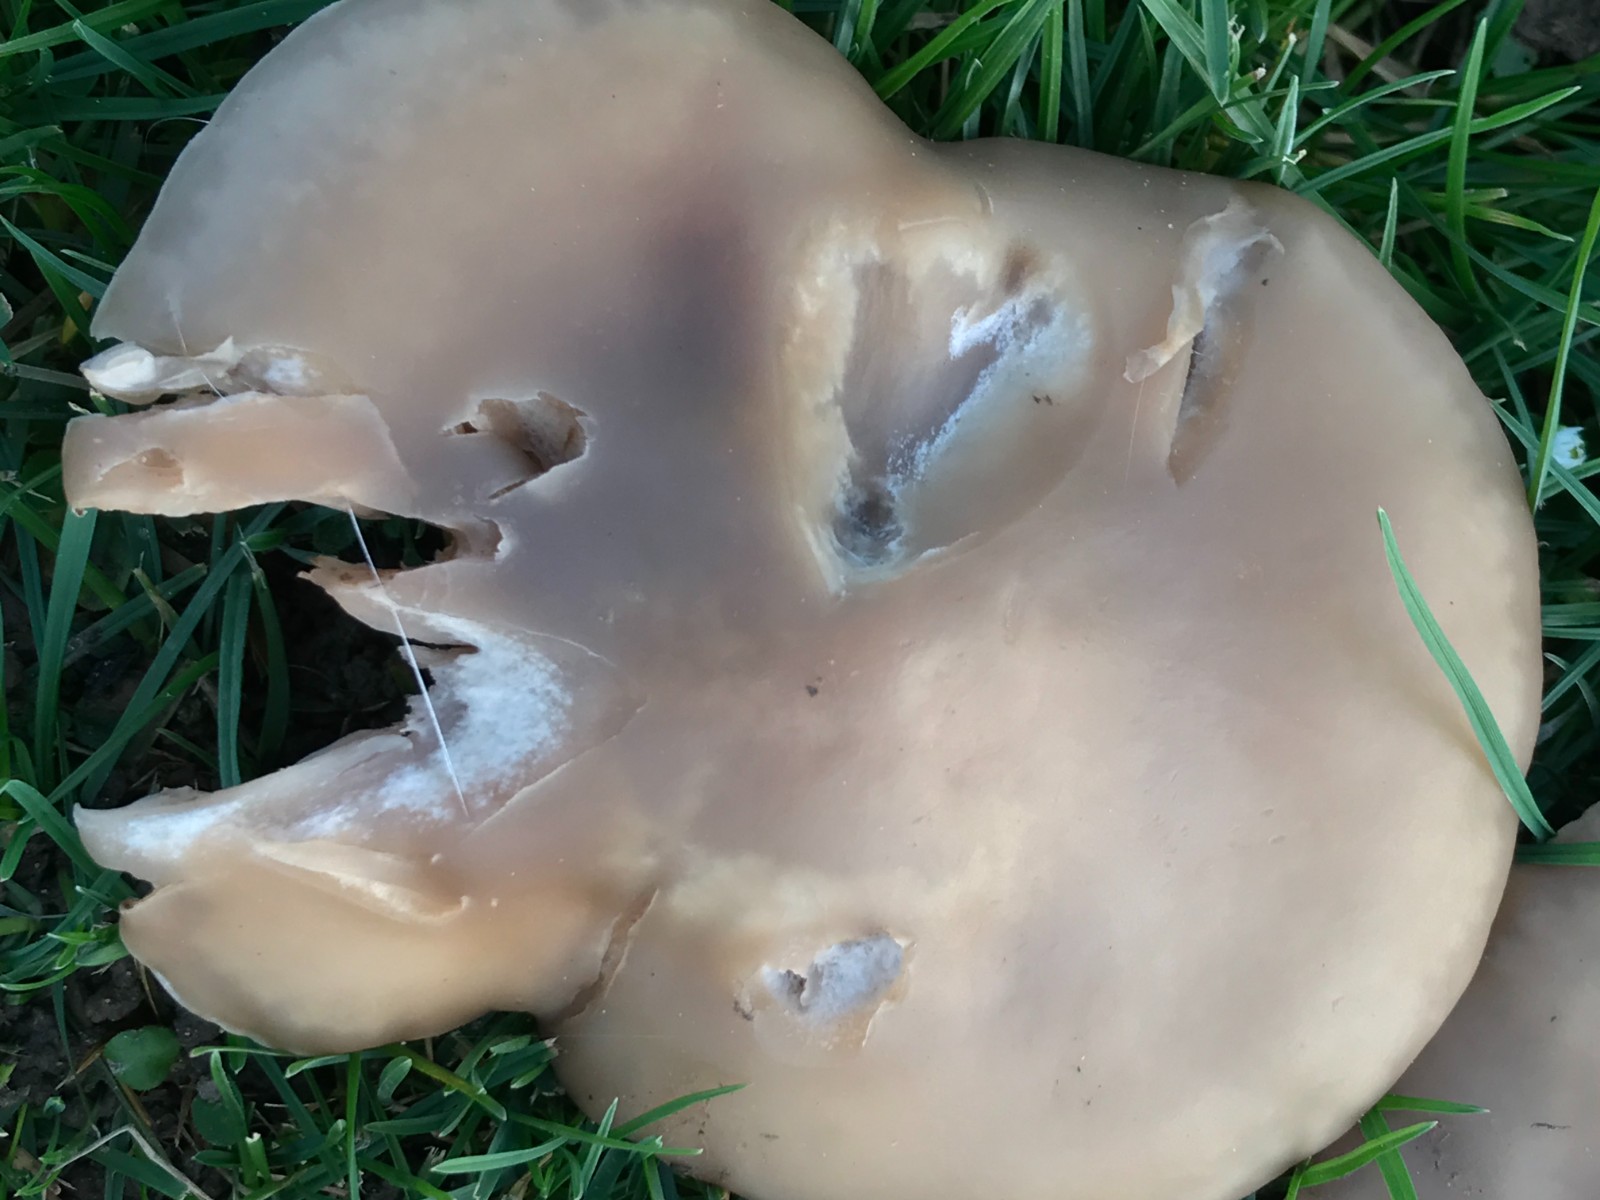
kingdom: Fungi
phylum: Basidiomycota
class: Agaricomycetes
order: Agaricales
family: Tricholomataceae
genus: Lepista
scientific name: Lepista personata
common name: bleg hekseringshat
